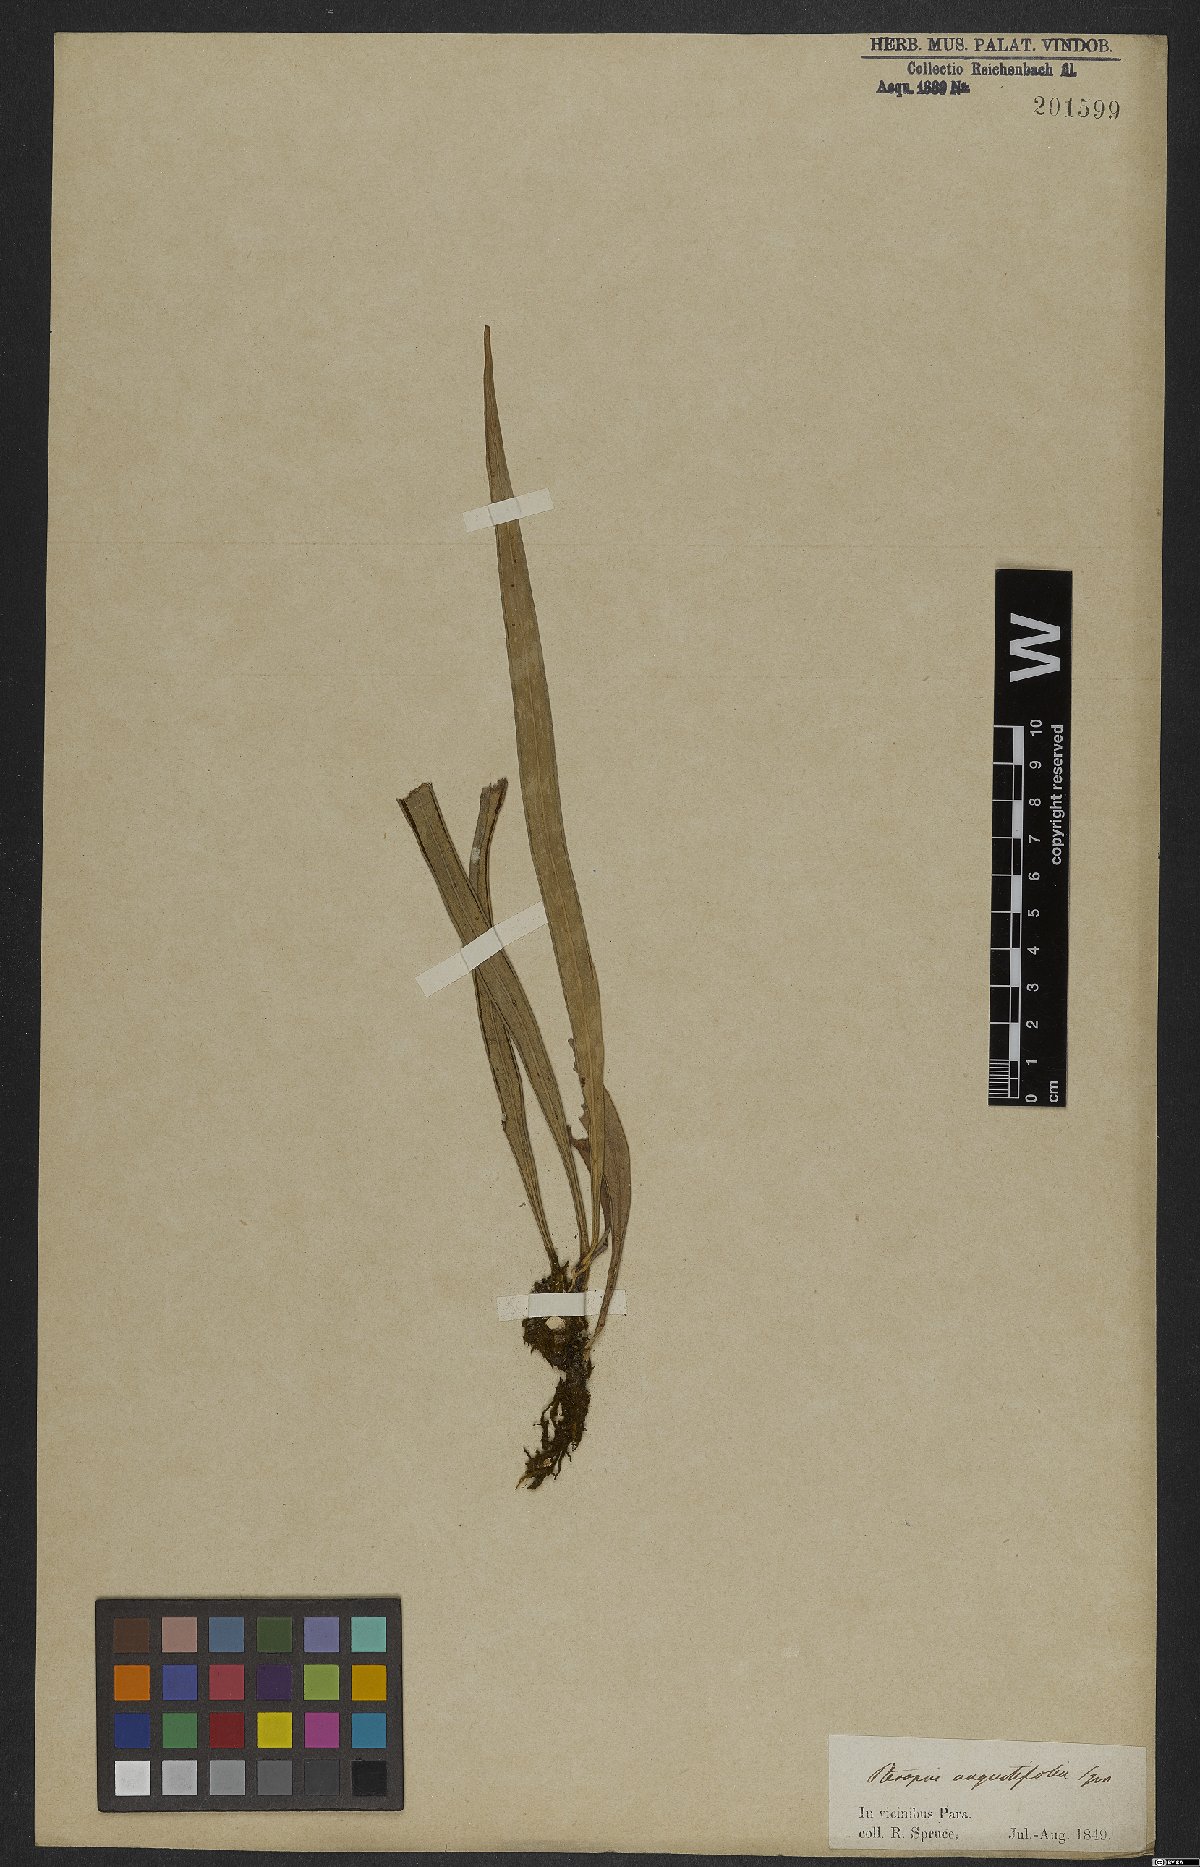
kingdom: Plantae
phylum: Tracheophyta
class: Polypodiopsida
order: Polypodiales
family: Pteridaceae
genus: Ananthacorus
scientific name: Ananthacorus angustifolius
